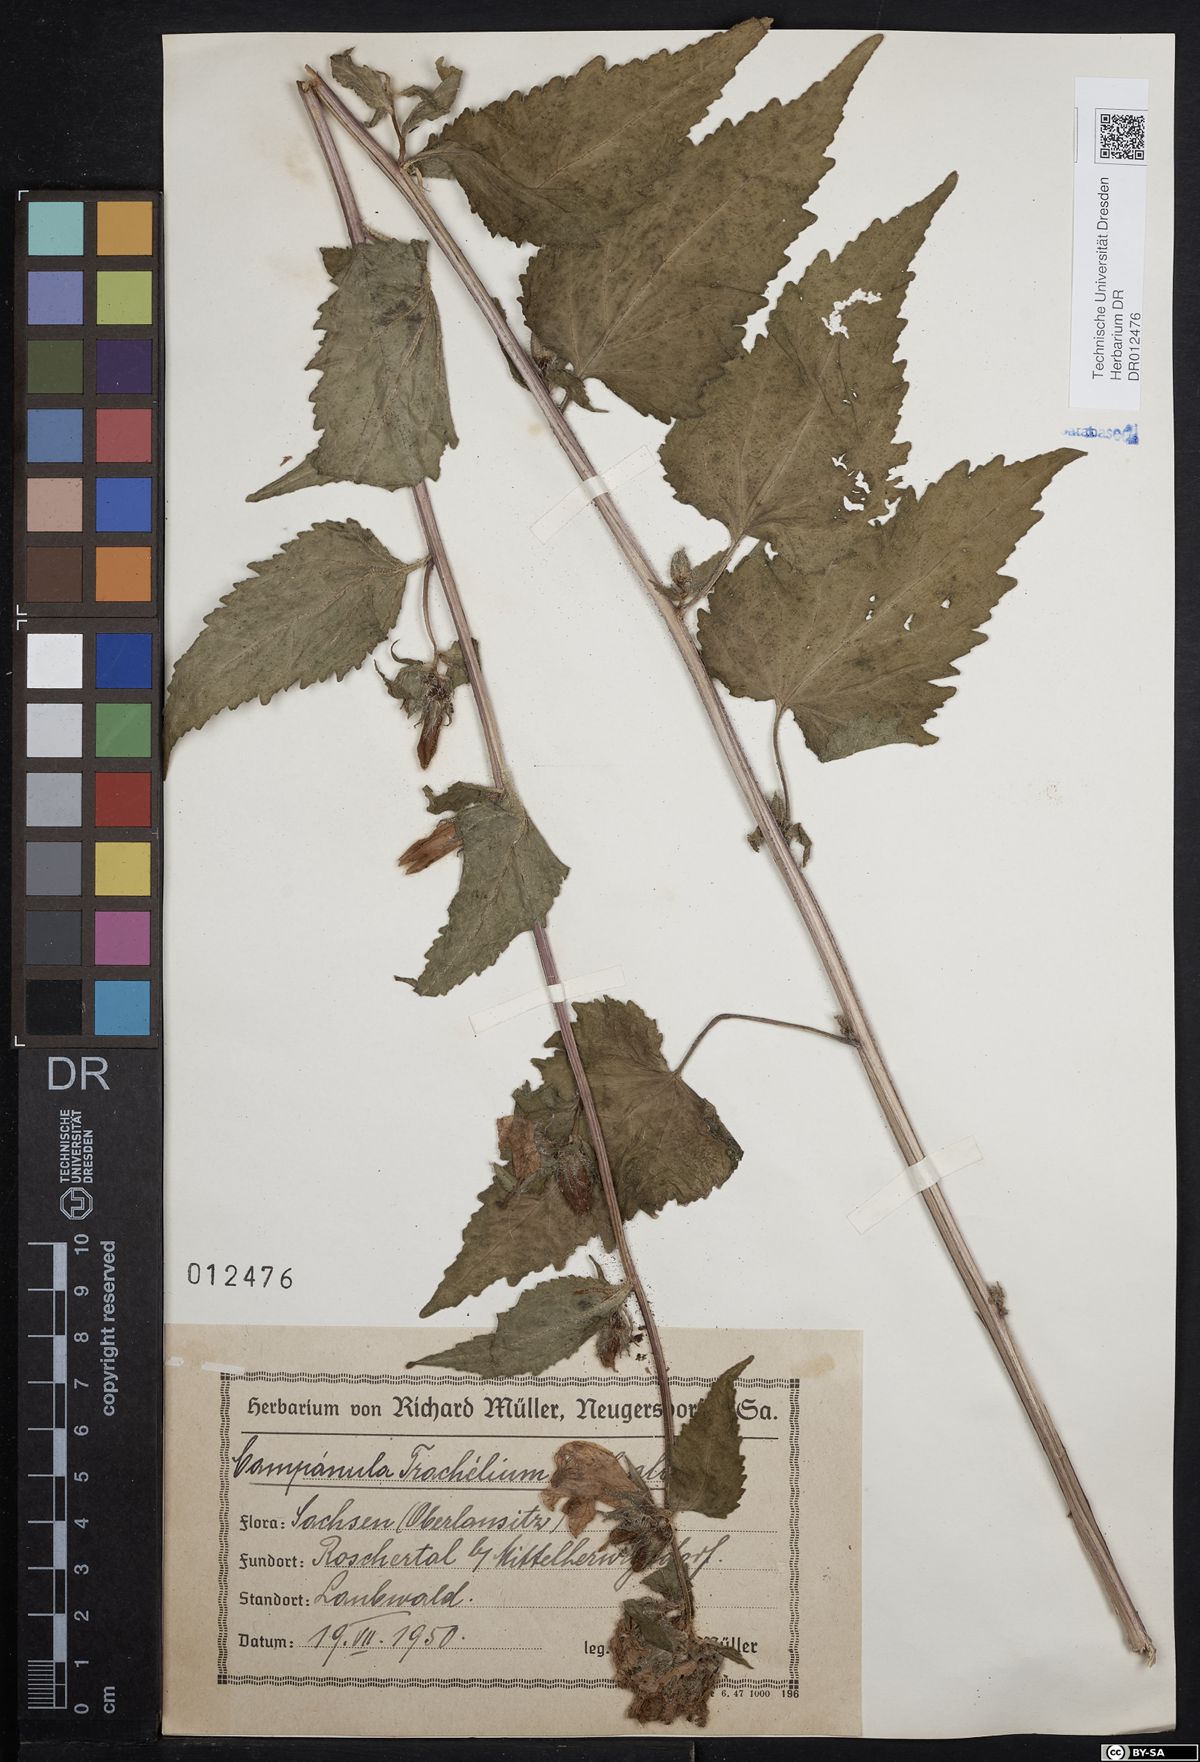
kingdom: Plantae
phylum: Tracheophyta
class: Magnoliopsida
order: Asterales
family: Campanulaceae
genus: Campanula
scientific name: Campanula trachelium
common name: Nettle-leaved bellflower
